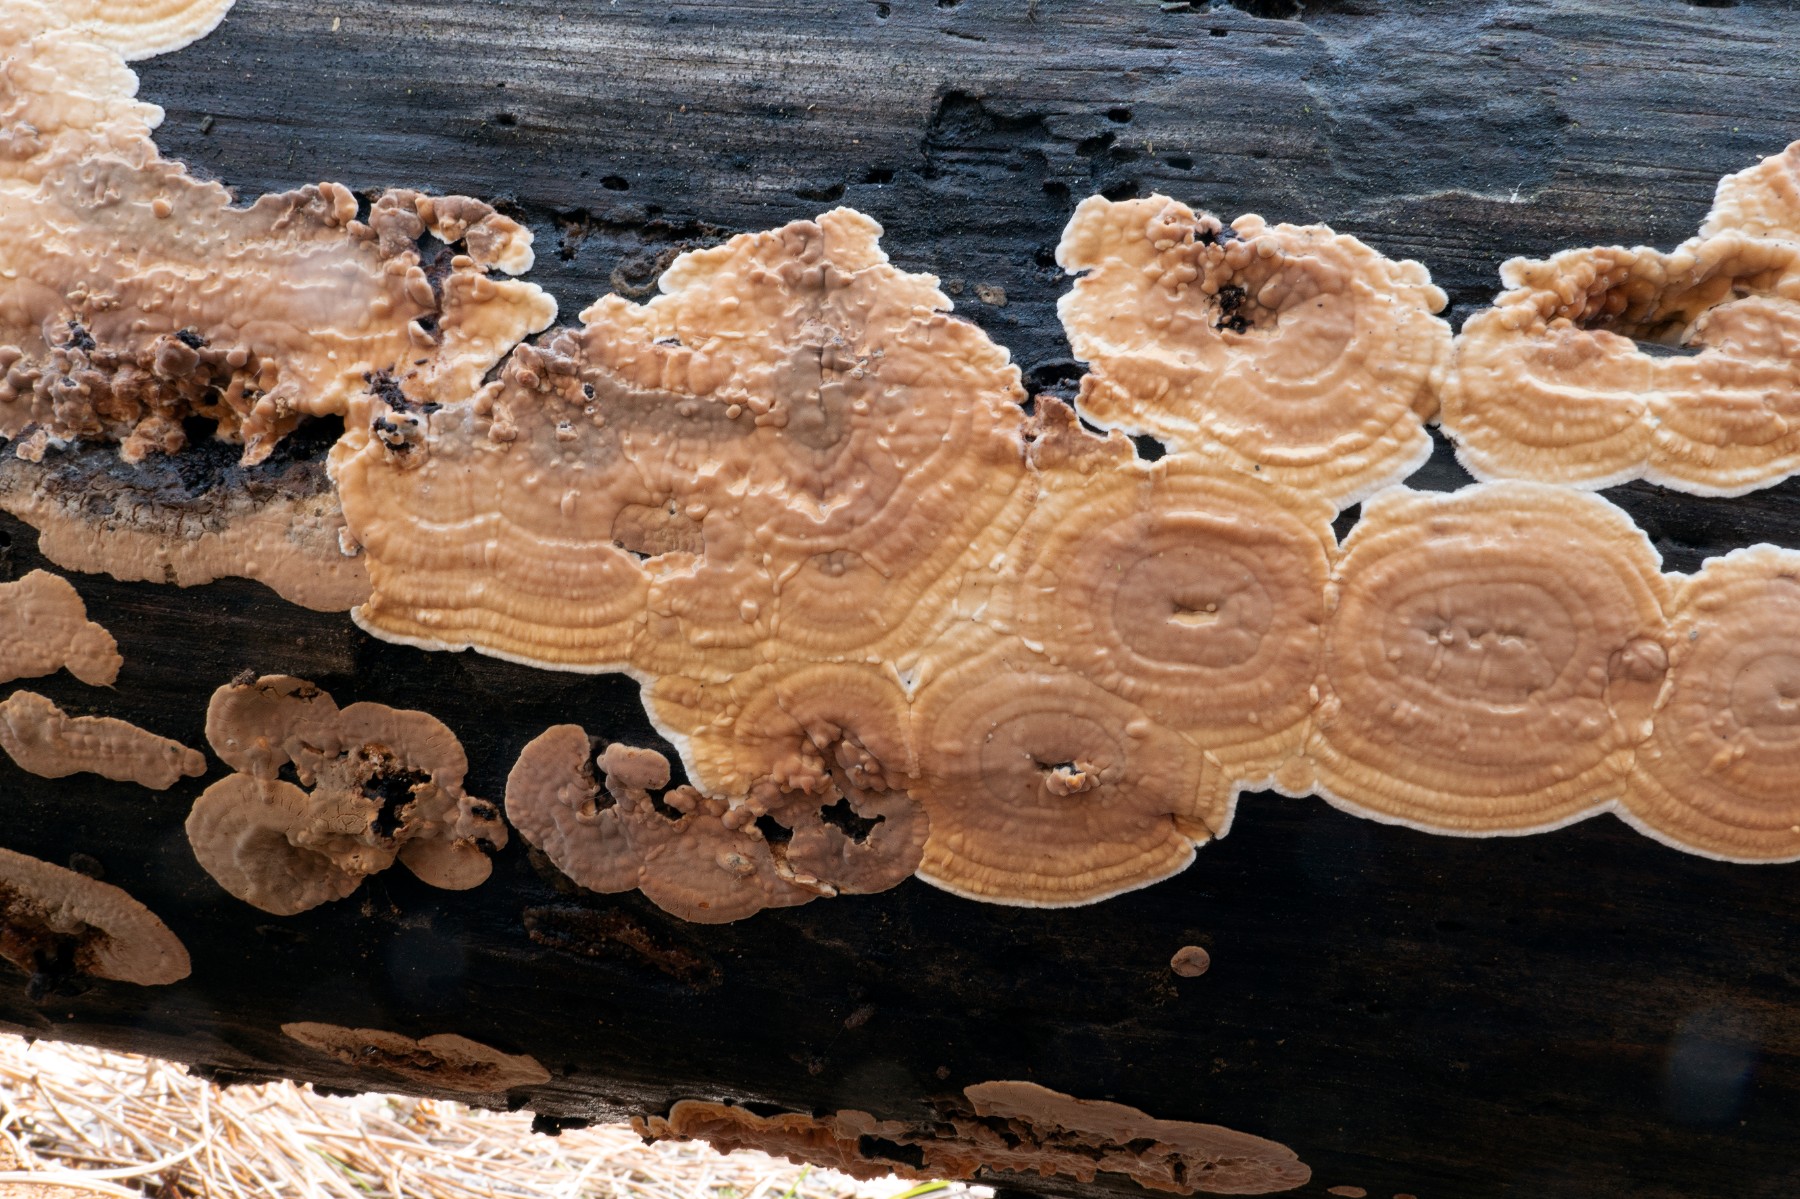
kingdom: Fungi
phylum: Basidiomycota
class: Agaricomycetes
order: Polyporales
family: Dacryobolaceae
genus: Dacryobolus
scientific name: Dacryobolus karstenii
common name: glat vulkanskorpe
